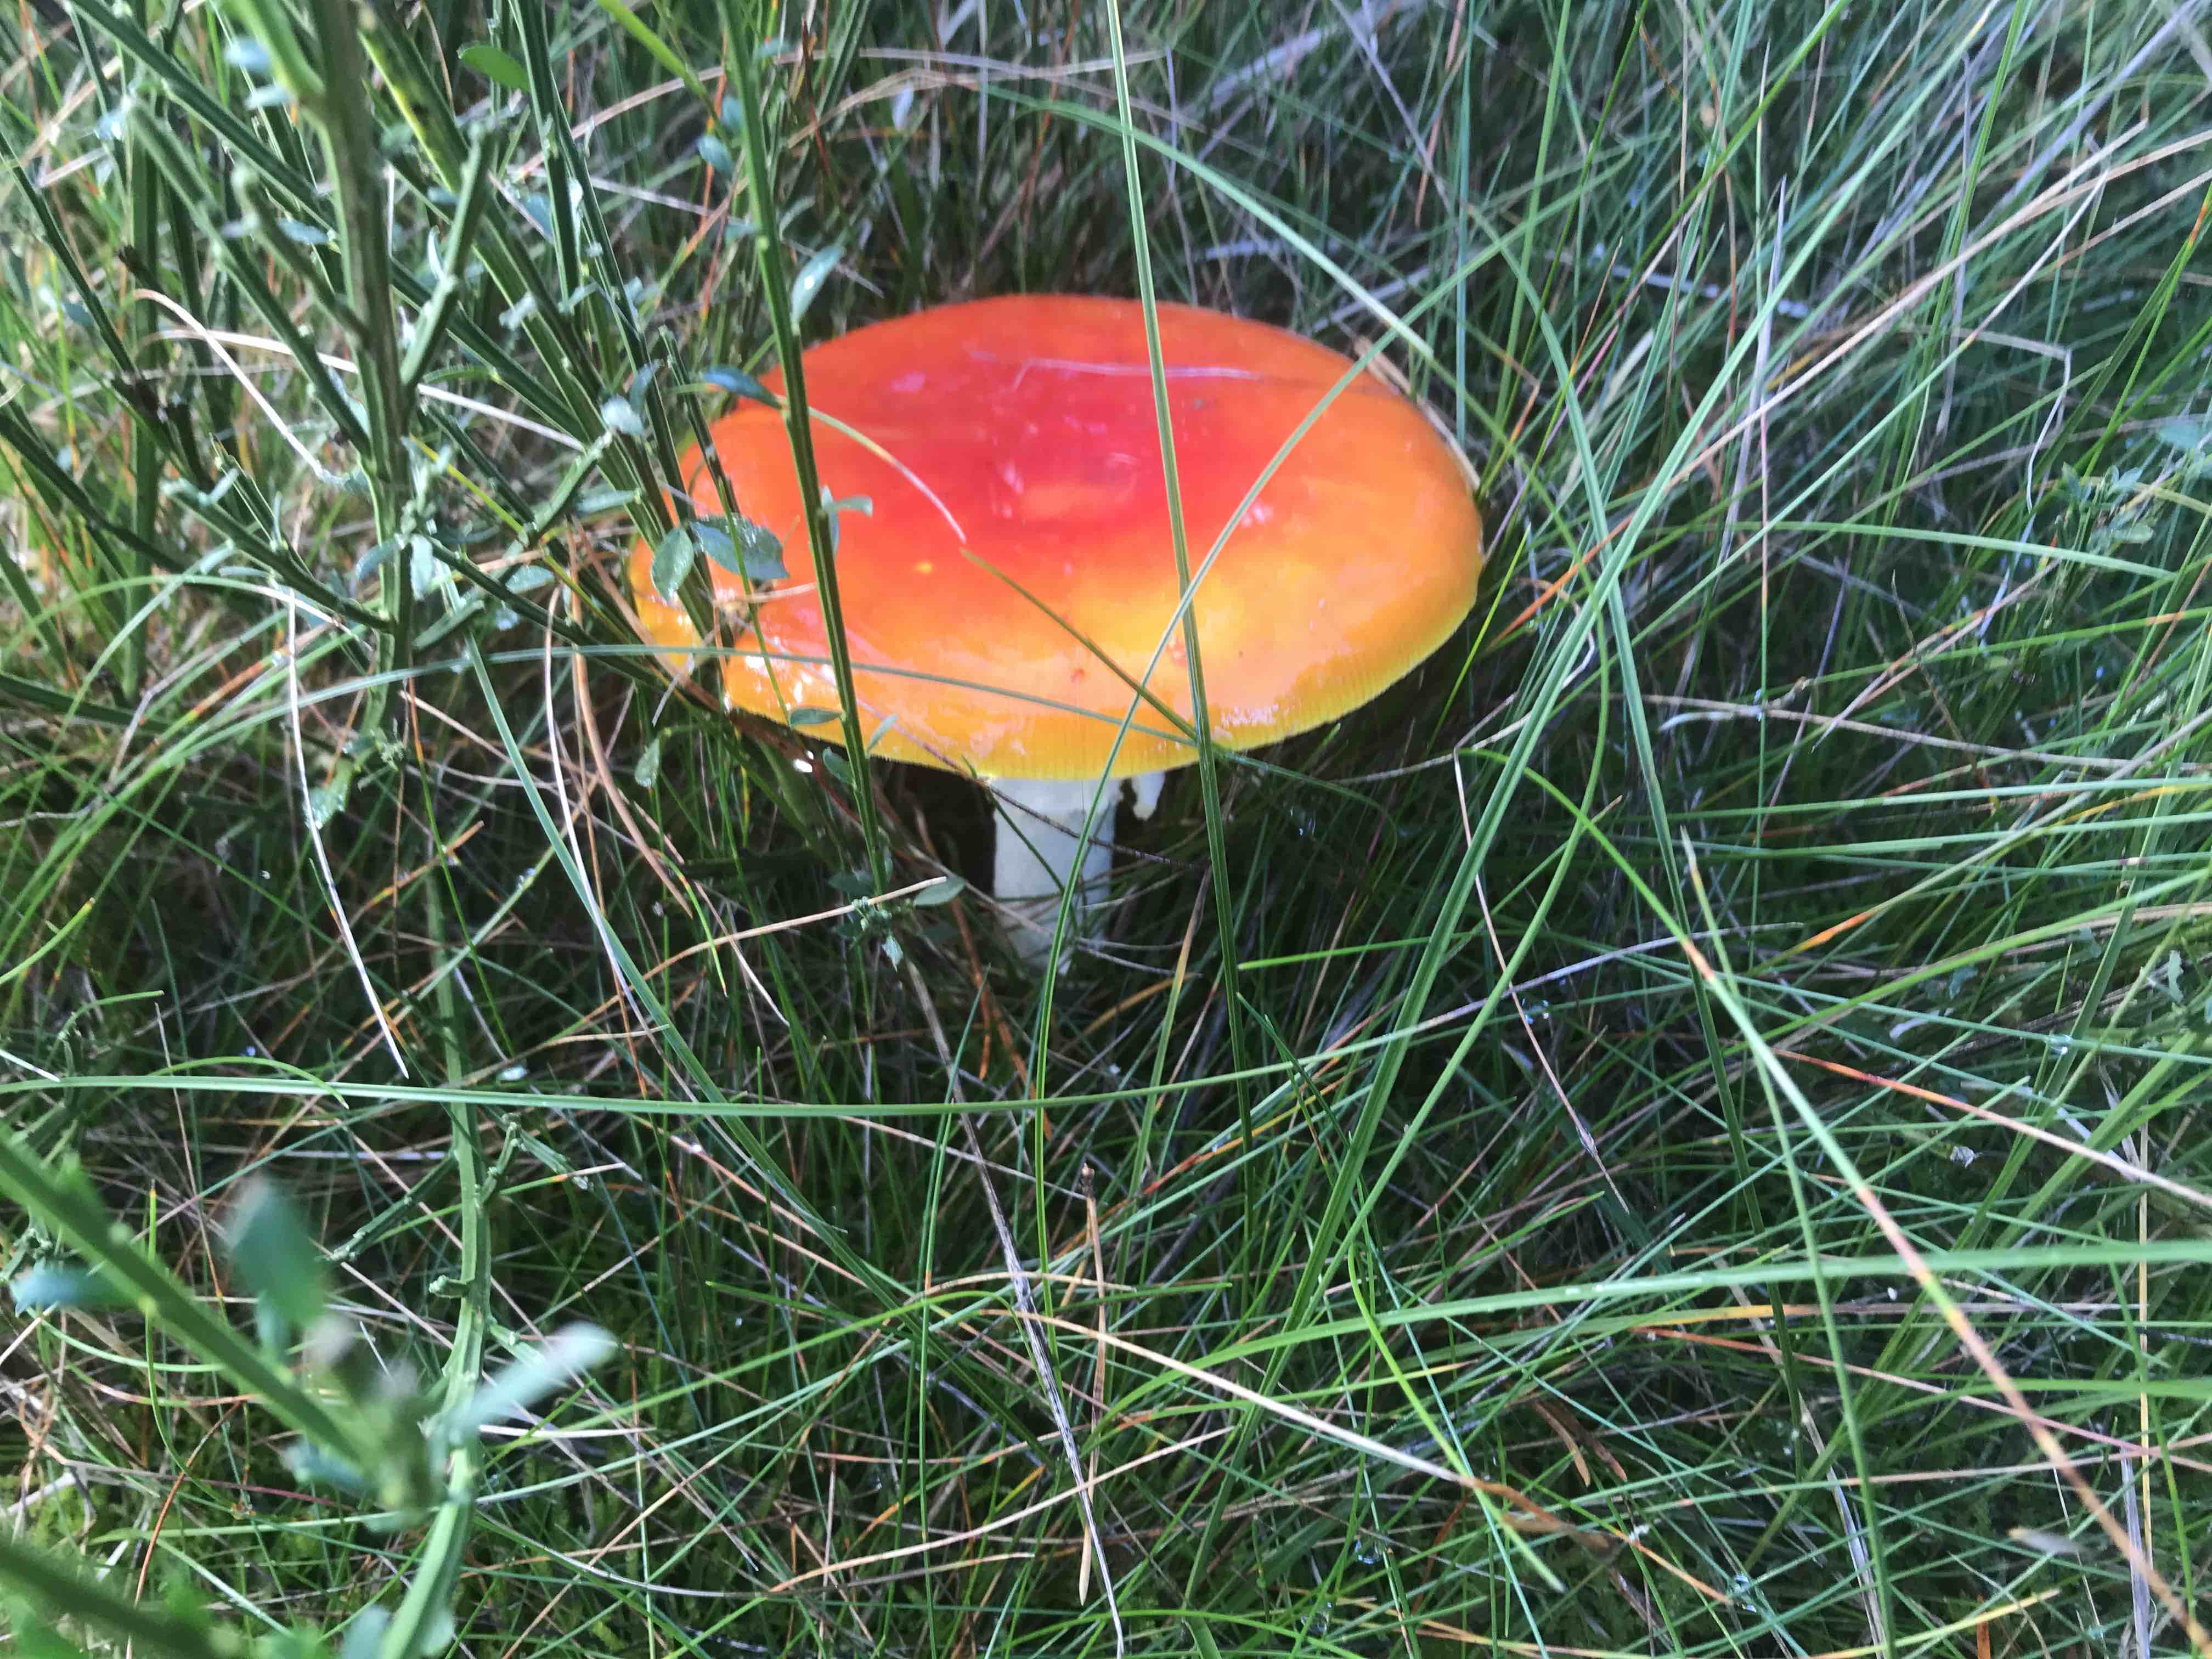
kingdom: Fungi
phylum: Basidiomycota
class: Agaricomycetes
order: Agaricales
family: Amanitaceae
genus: Amanita
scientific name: Amanita muscaria
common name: rød fluesvamp
